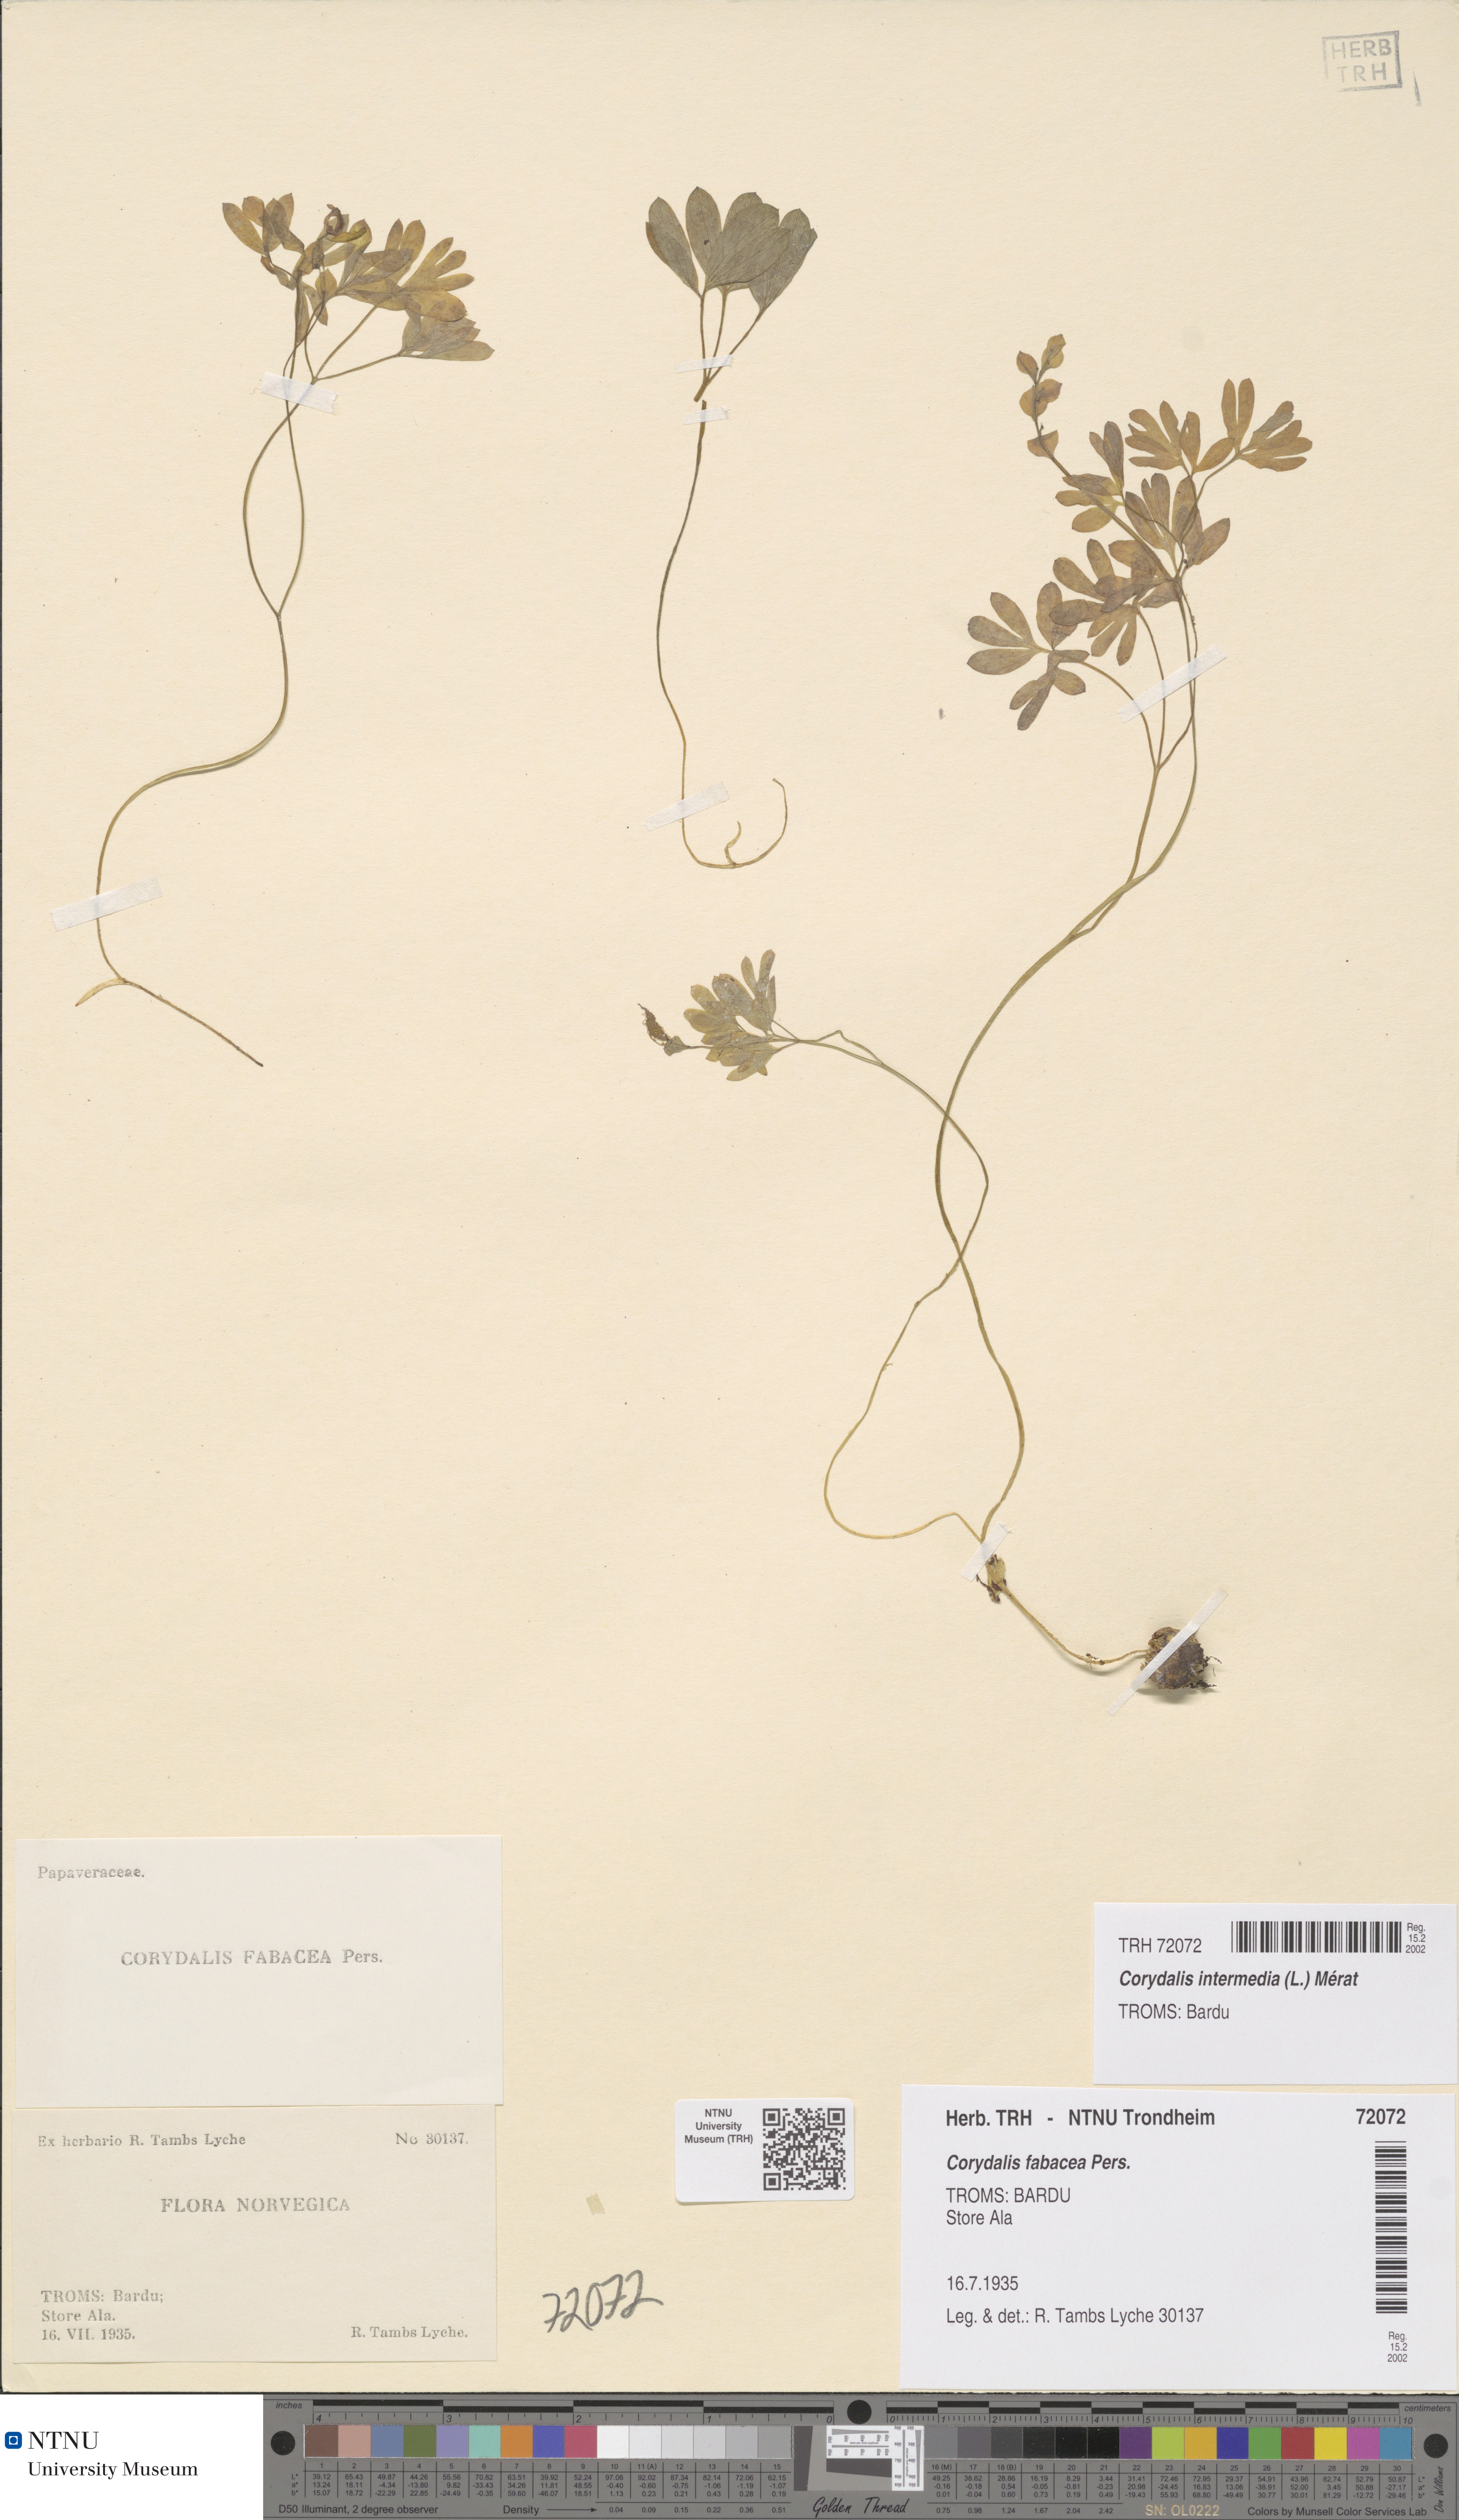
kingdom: Plantae
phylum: Tracheophyta
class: Magnoliopsida
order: Ranunculales
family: Papaveraceae
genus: Corydalis
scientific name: Corydalis intermedia
